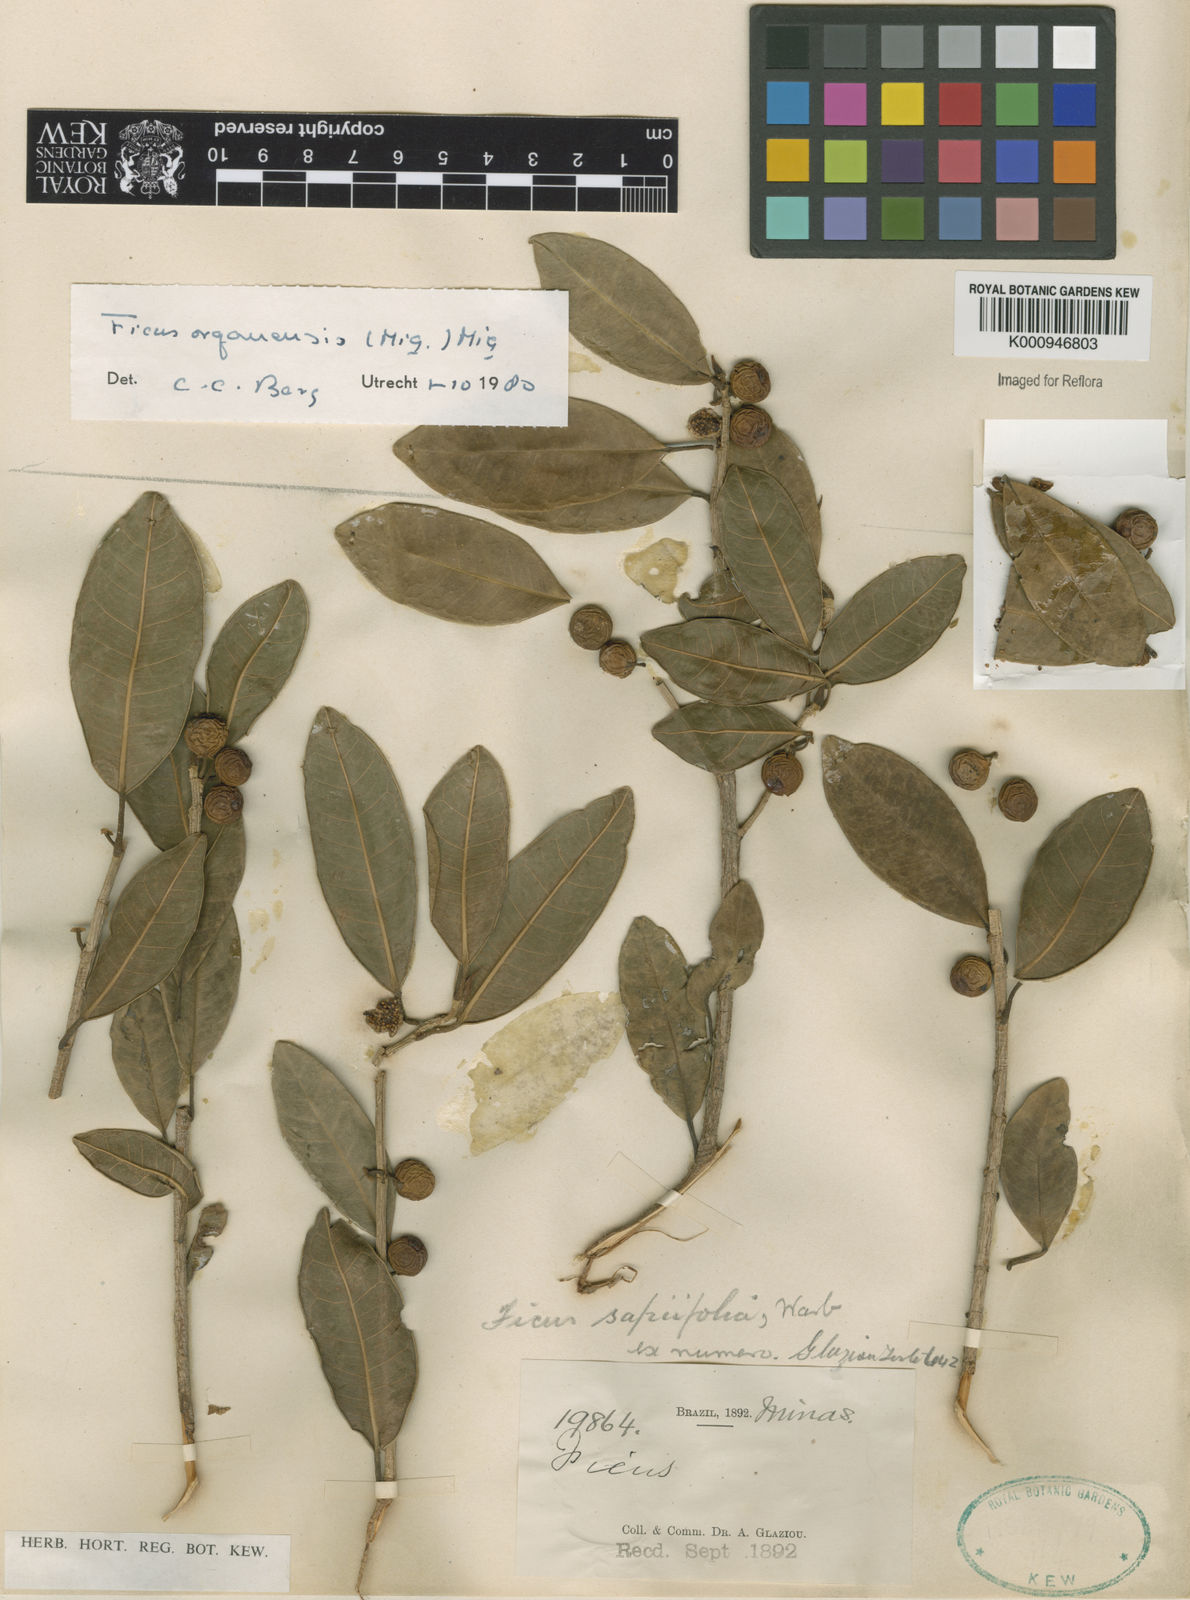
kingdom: Plantae
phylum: Tracheophyta
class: Magnoliopsida
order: Rosales
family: Moraceae
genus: Ficus
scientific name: Ficus organensis
